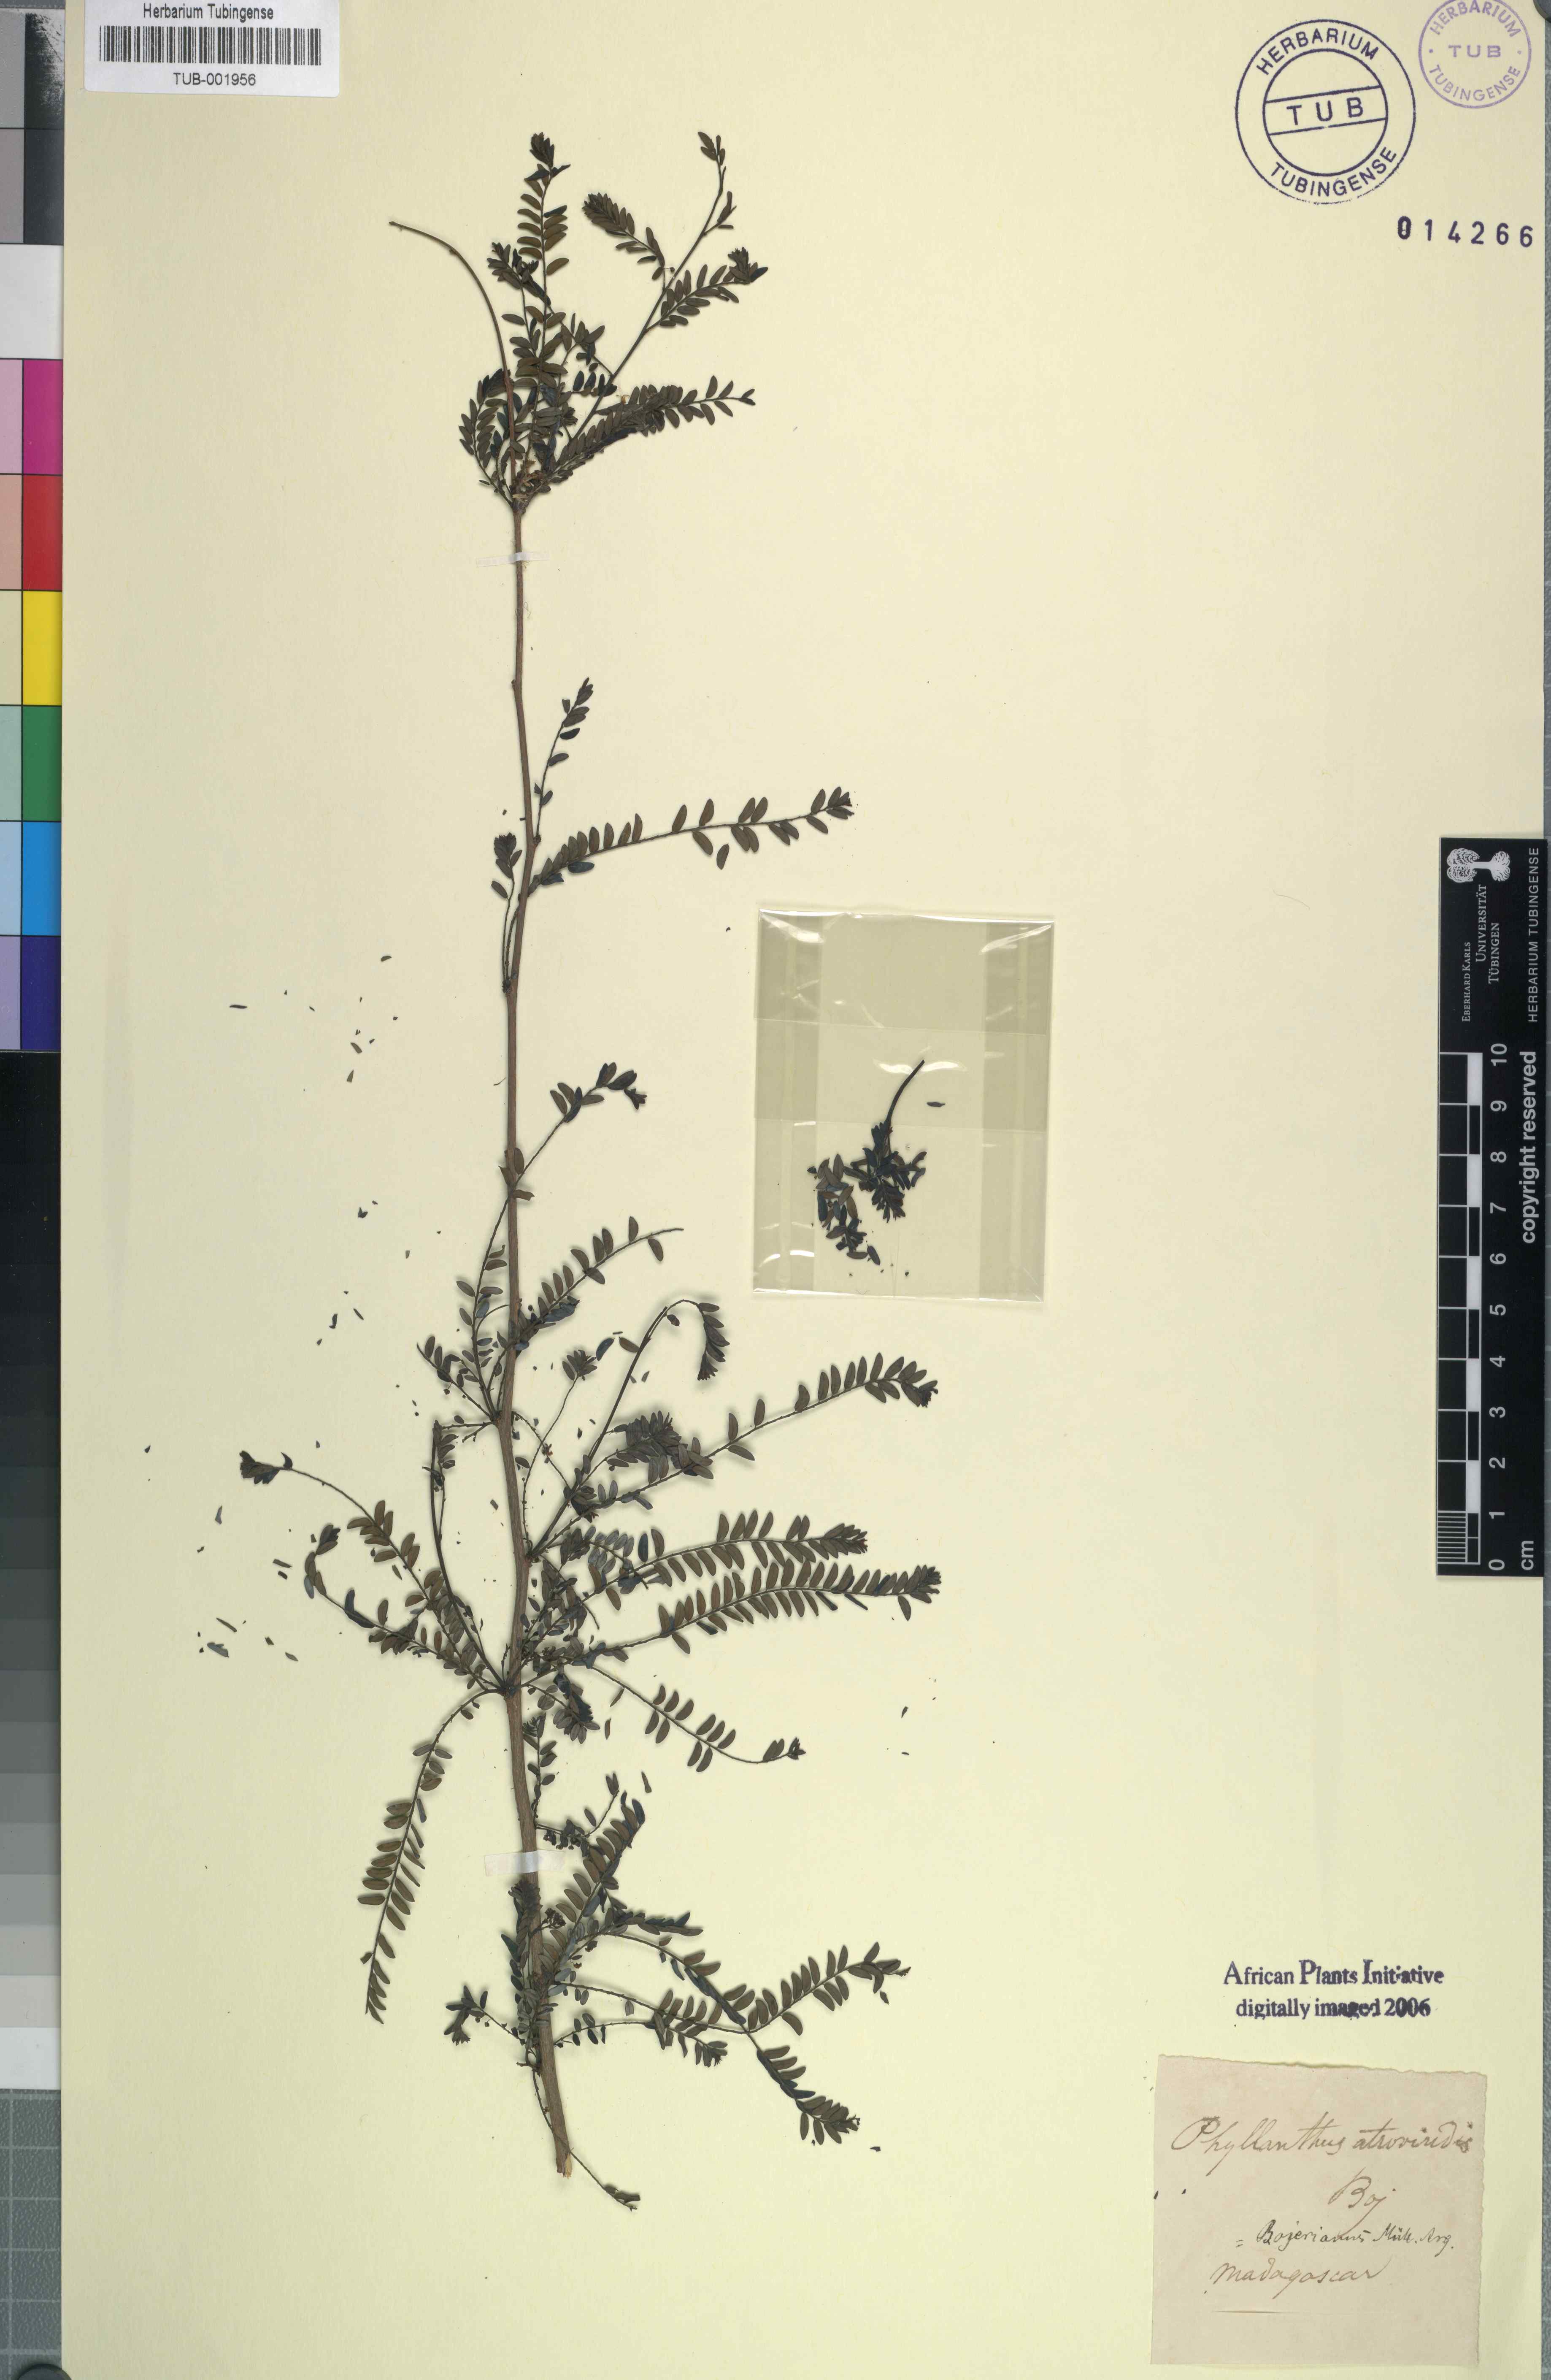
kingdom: Plantae
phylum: Tracheophyta
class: Magnoliopsida
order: Malpighiales
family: Phyllanthaceae
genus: Phyllanthus
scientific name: Phyllanthus bojerianus
